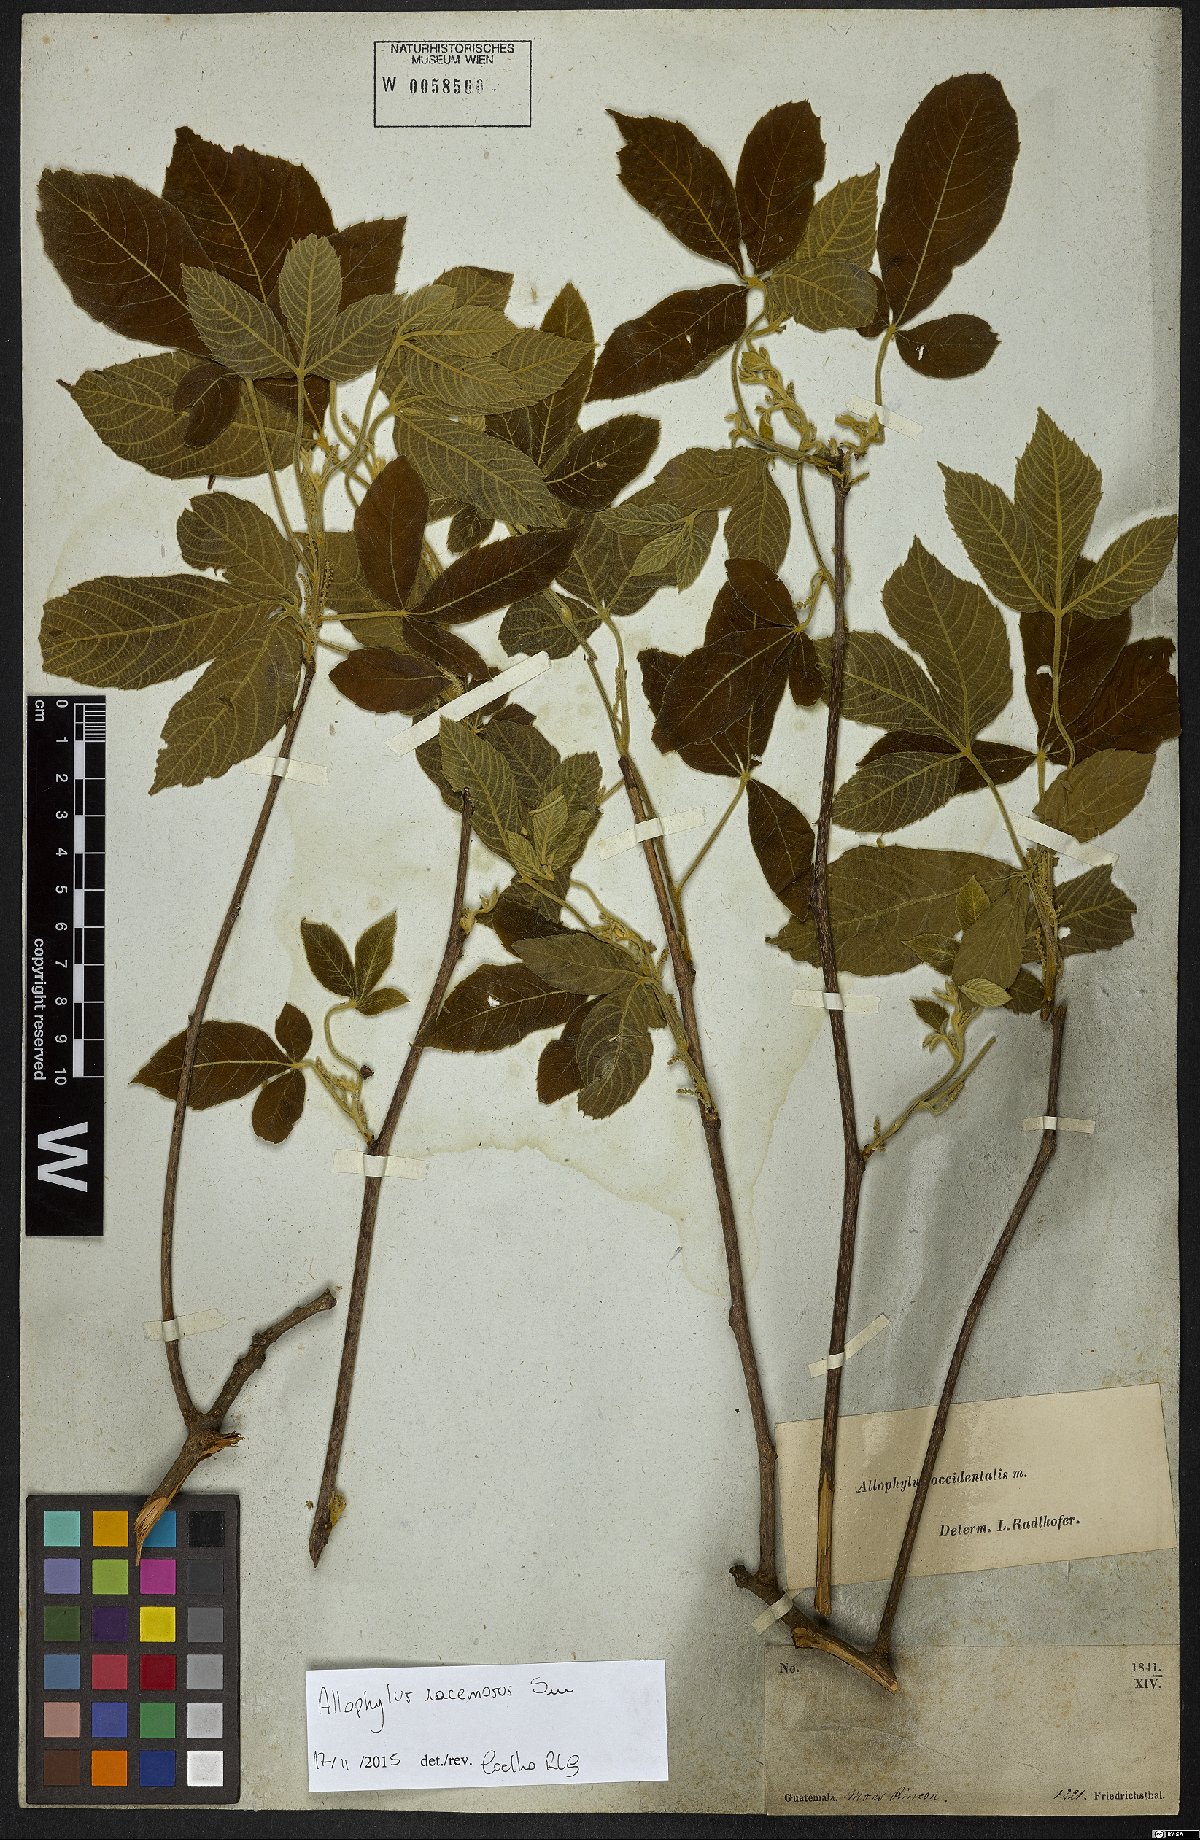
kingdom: Plantae
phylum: Tracheophyta
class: Magnoliopsida
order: Sapindales
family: Sapindaceae
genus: Allophylus
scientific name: Allophylus racemosus
